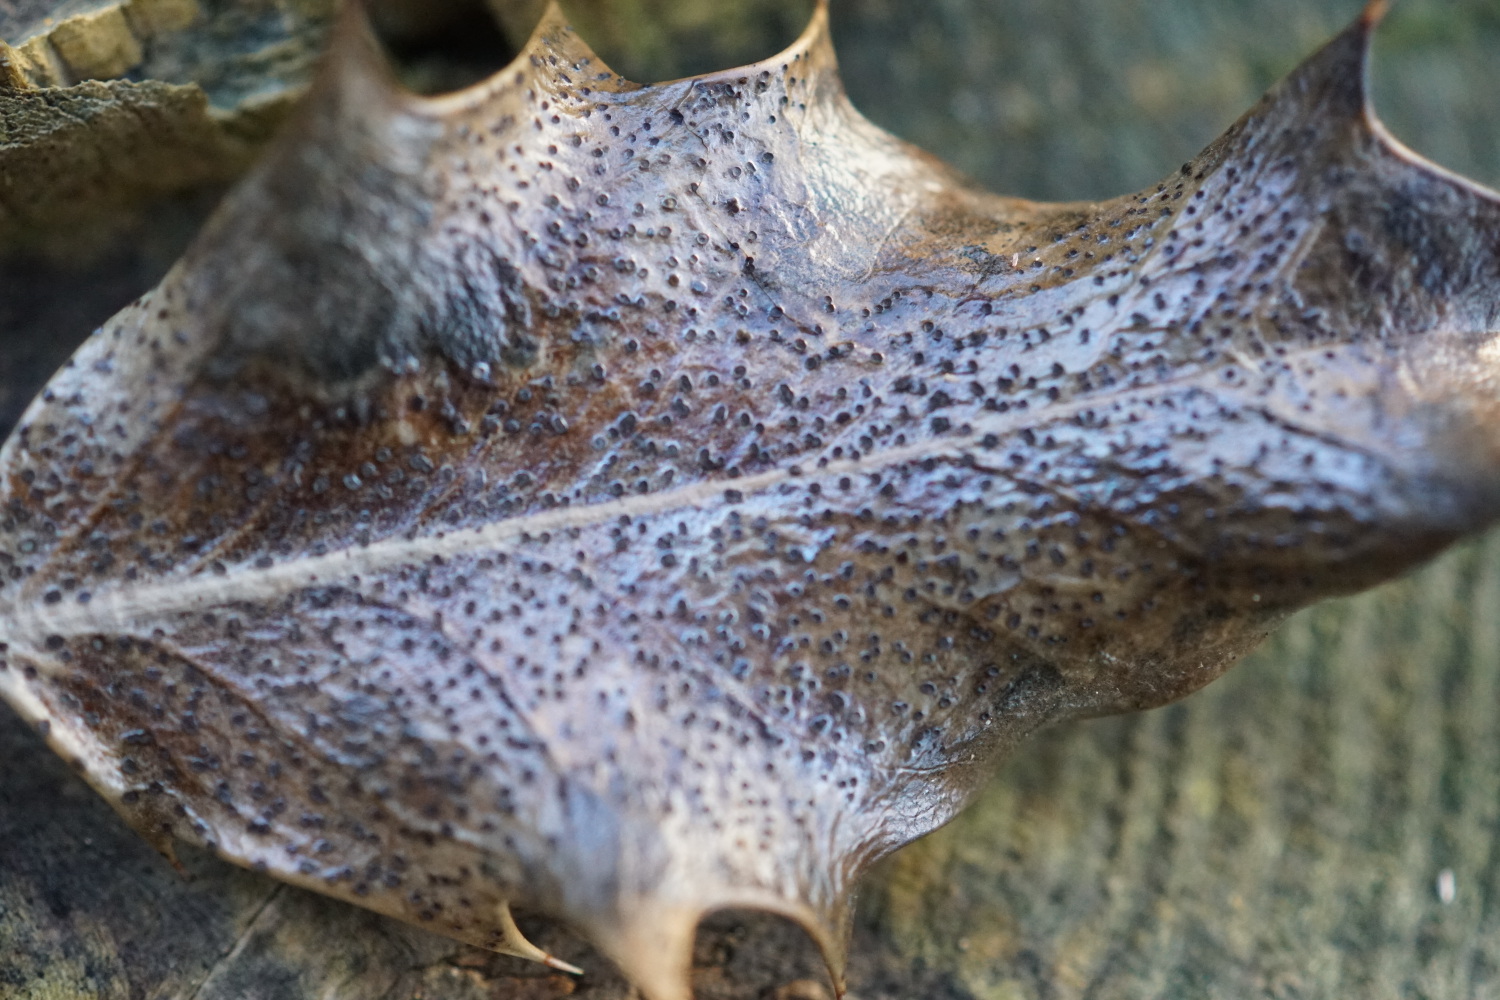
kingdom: Fungi
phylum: Ascomycota
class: Leotiomycetes
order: Helotiales
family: Cenangiaceae
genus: Trochila
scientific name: Trochila ilicina
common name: kristtorn-lågskive
